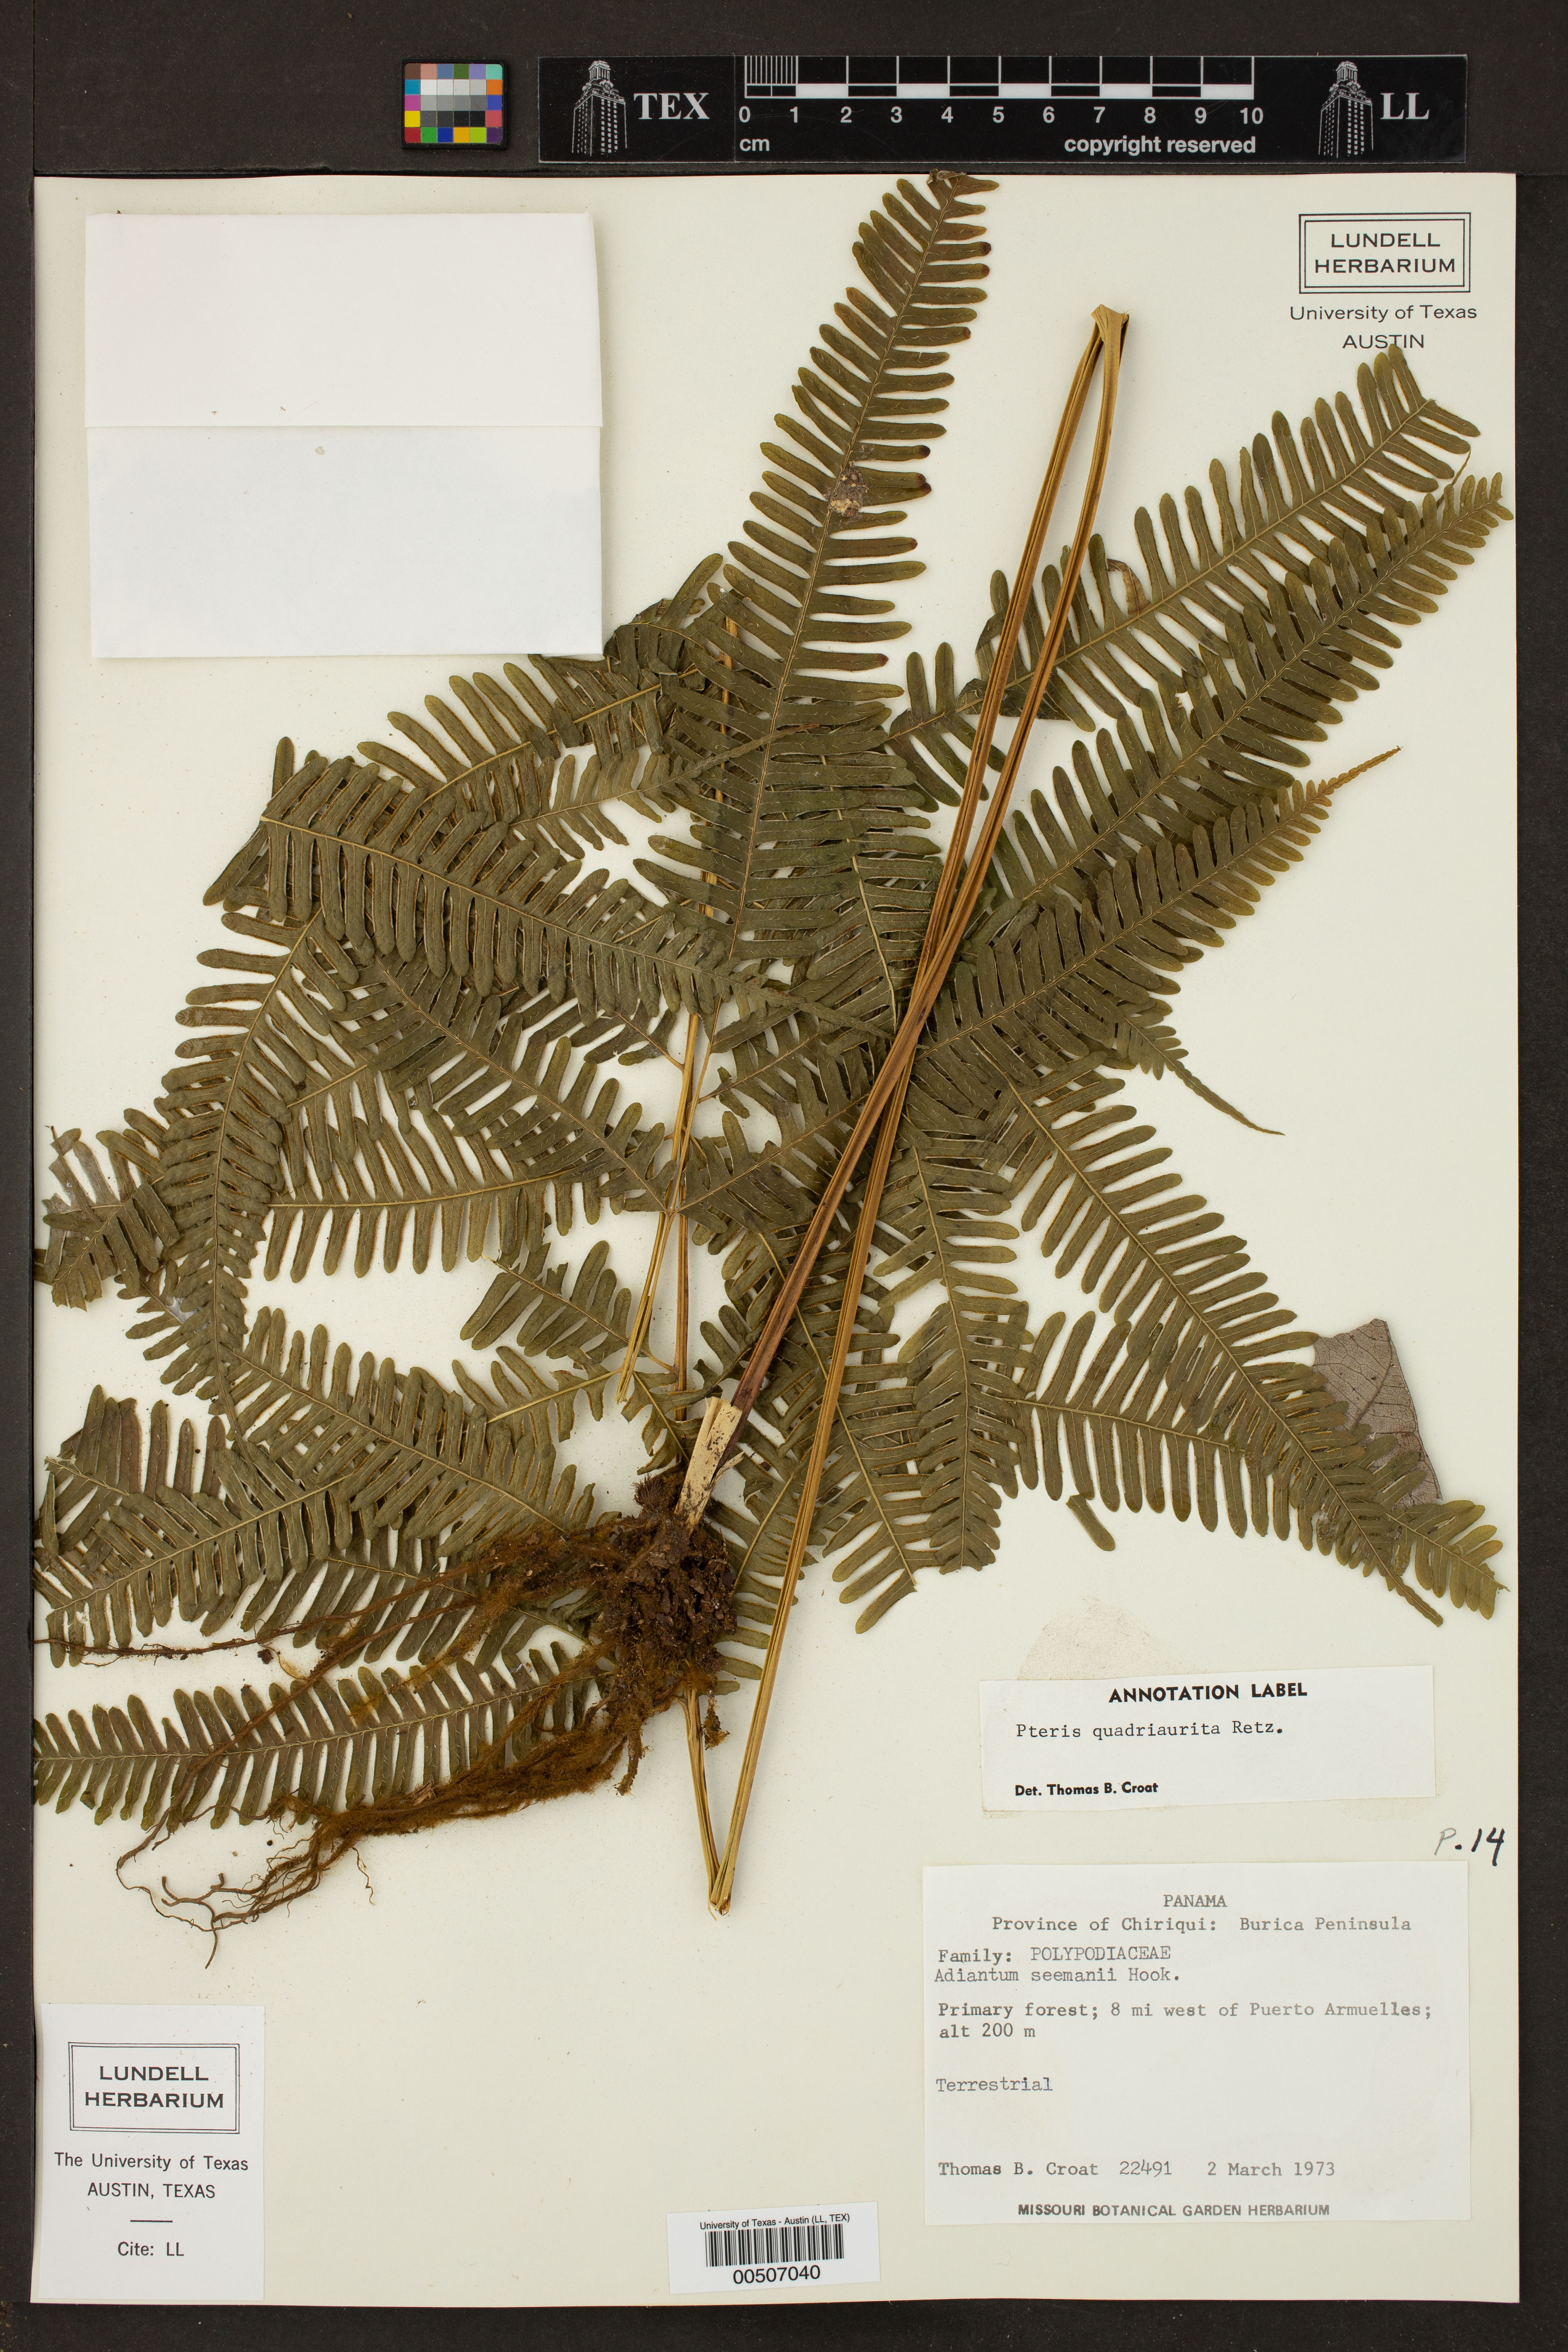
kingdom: Plantae
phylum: Tracheophyta
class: Polypodiopsida
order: Polypodiales
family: Pteridaceae
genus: Pteris
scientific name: Pteris quadriaurita
